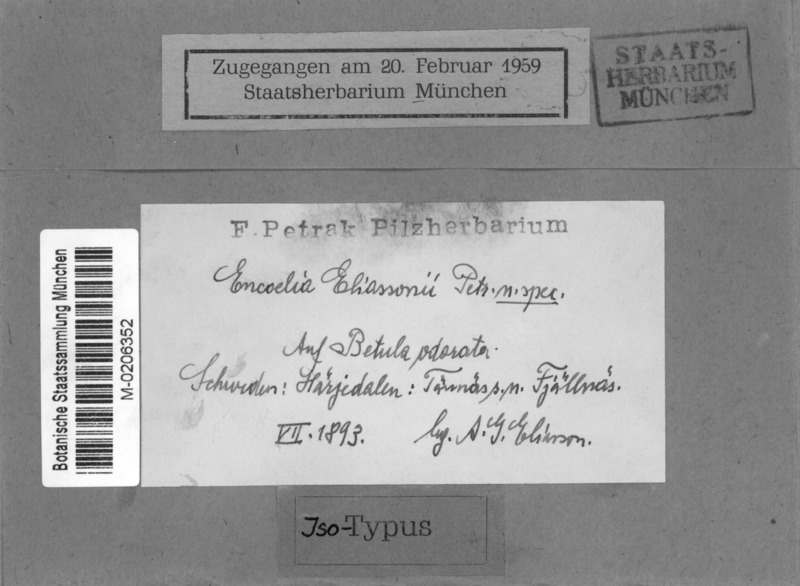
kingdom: Fungi
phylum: Ascomycota
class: Leotiomycetes
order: Helotiales
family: Cenangiaceae
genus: Encoelia
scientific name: Encoelia eliassonii
